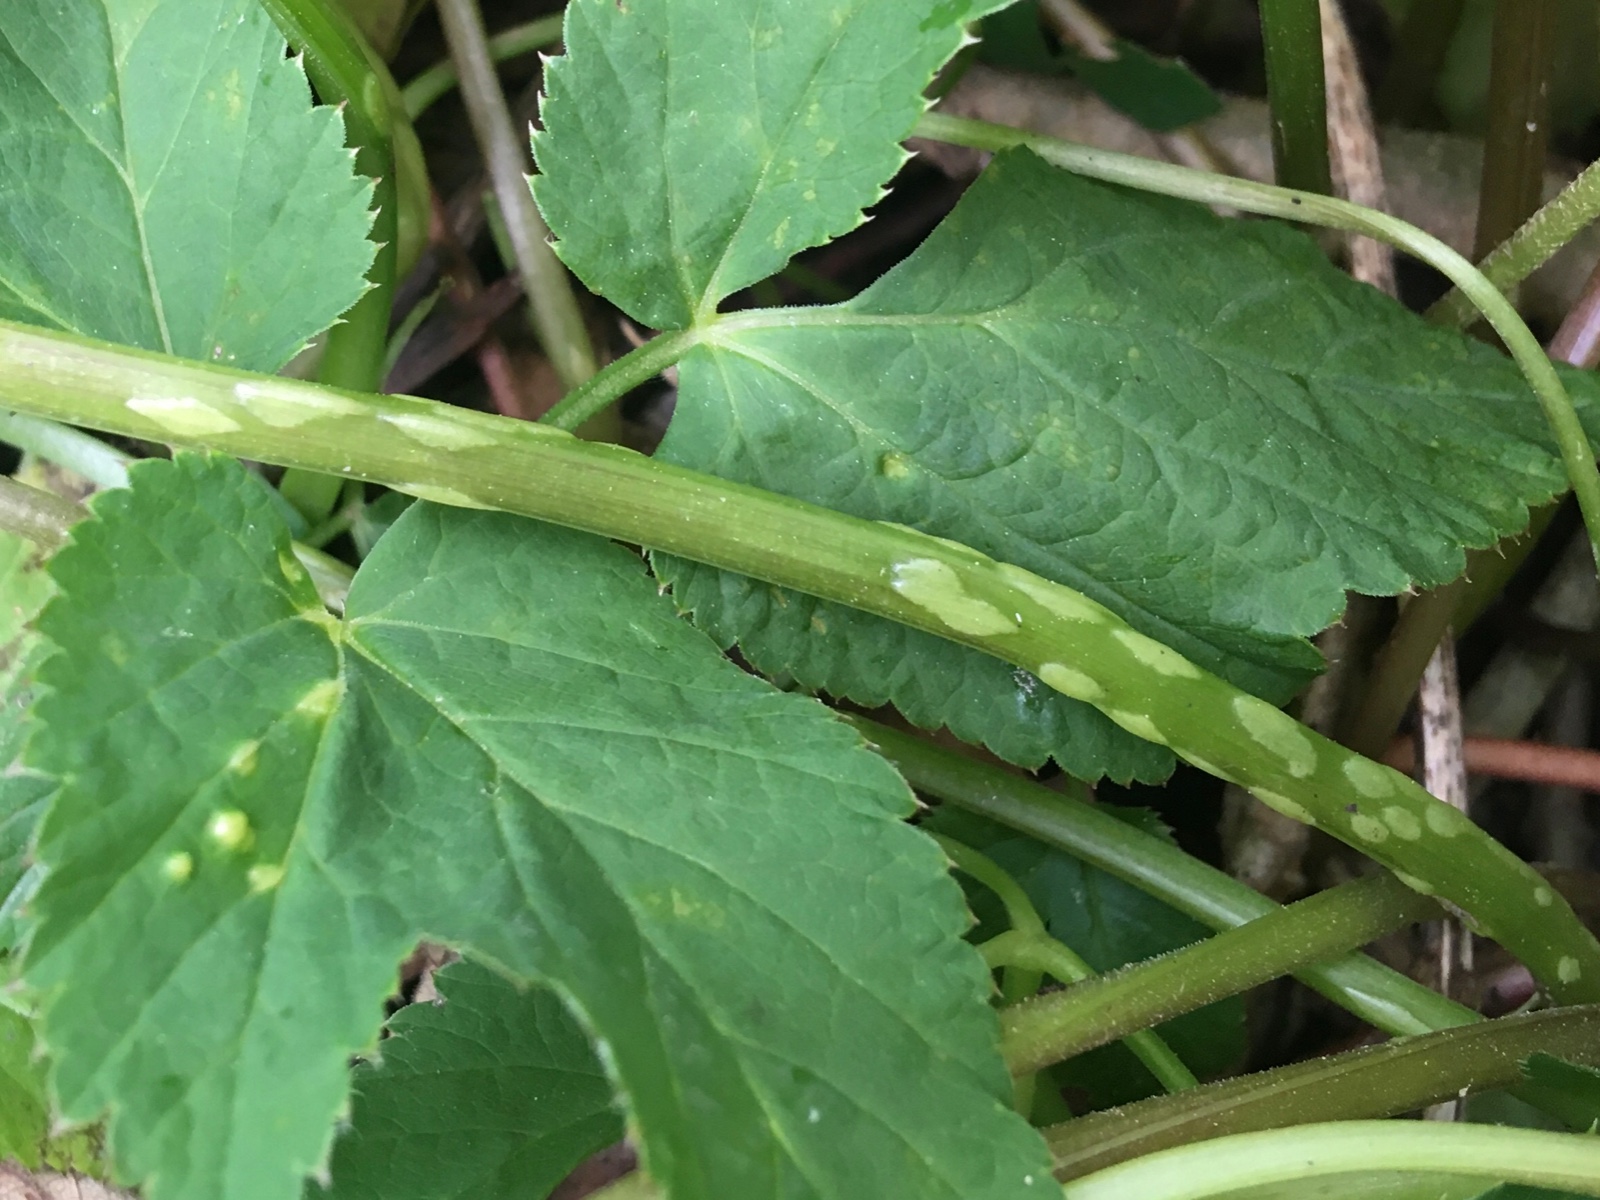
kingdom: Fungi
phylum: Ascomycota
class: Taphrinomycetes
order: Taphrinales
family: Taphrinaceae
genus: Protomyces
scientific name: Protomyces macrosporus
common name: skvalderkål-vablesæk
